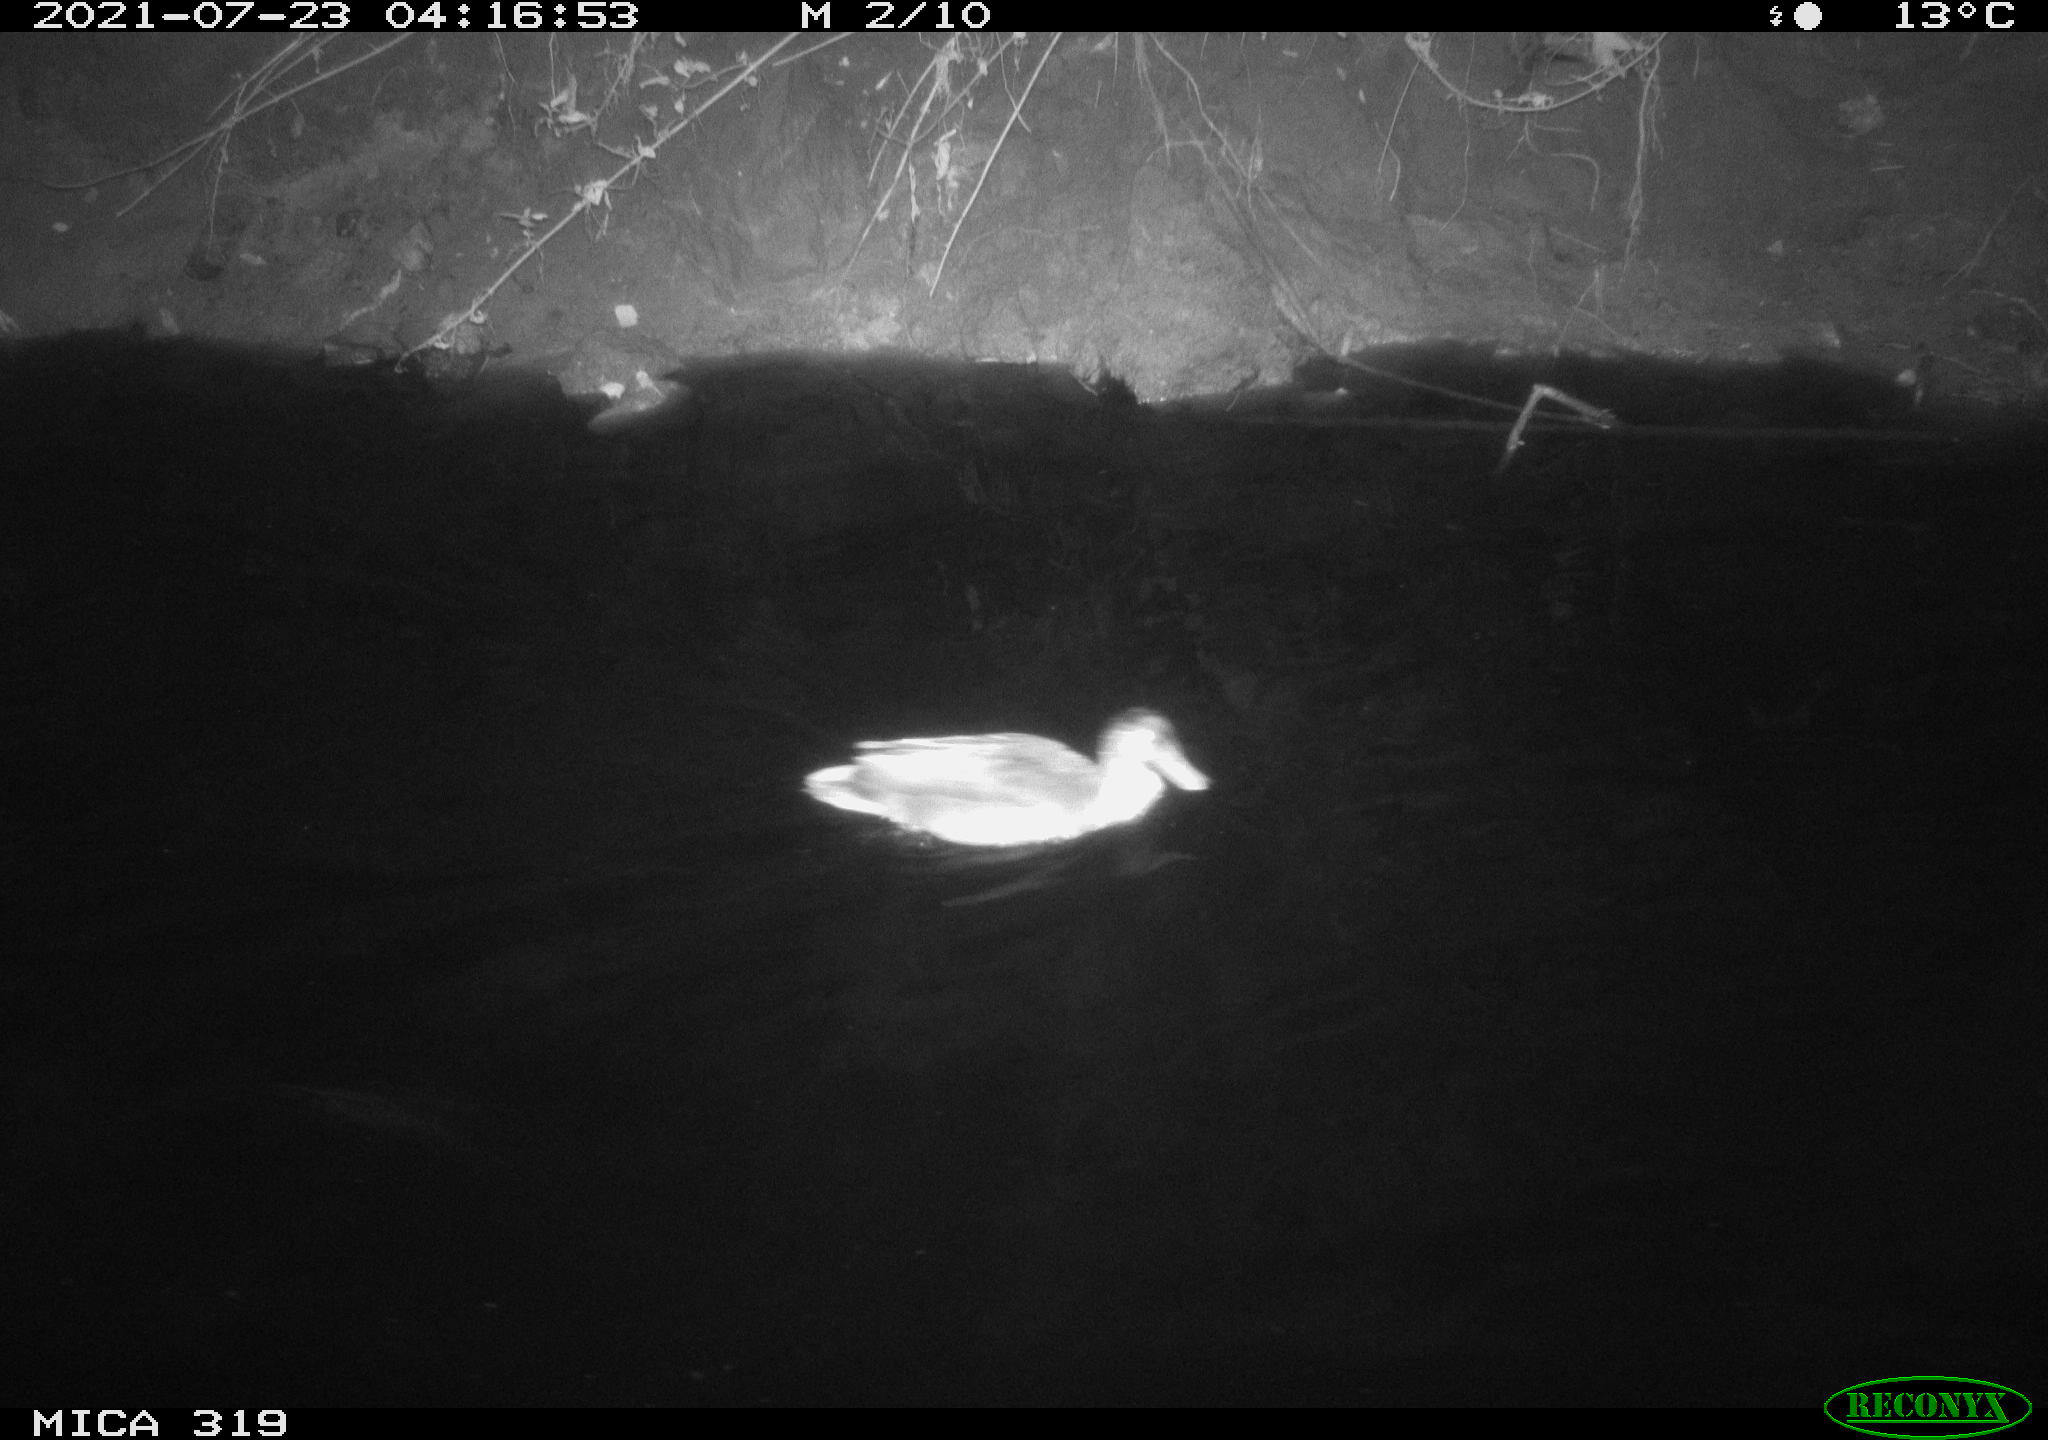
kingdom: Animalia
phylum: Chordata
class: Aves
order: Anseriformes
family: Anatidae
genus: Anas
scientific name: Anas platyrhynchos
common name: Mallard
